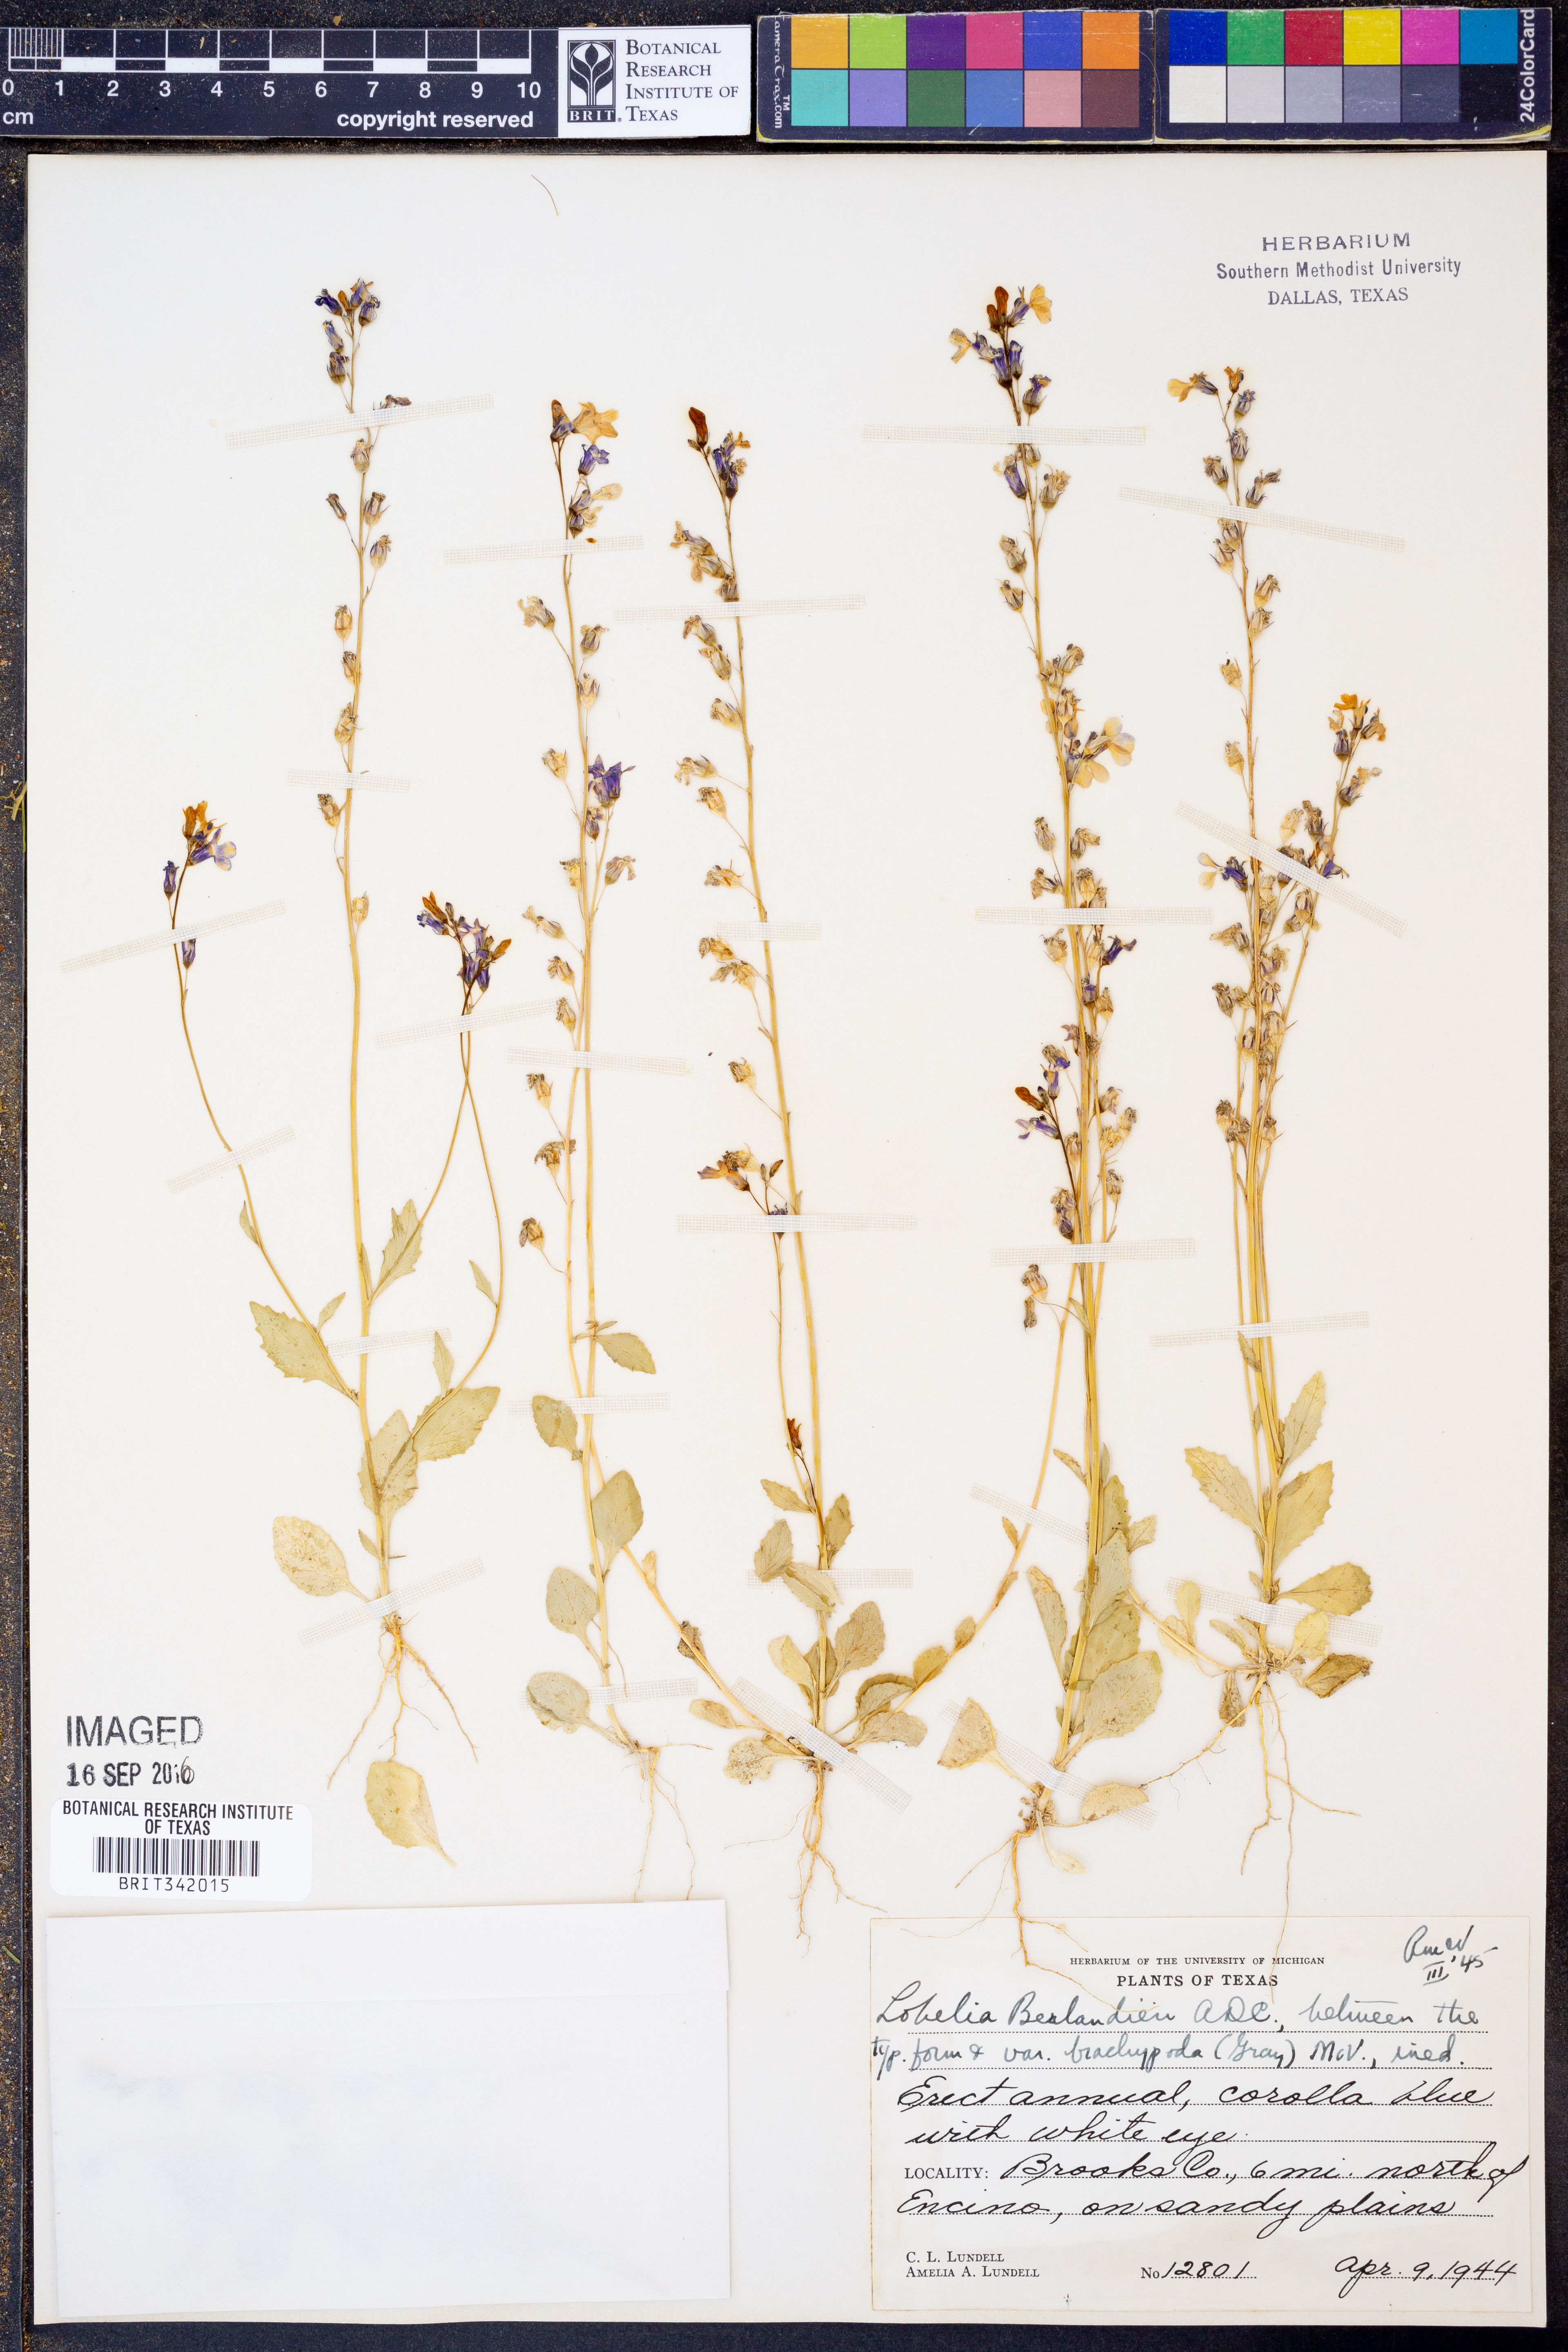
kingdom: Plantae
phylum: Tracheophyta
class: Magnoliopsida
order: Asterales
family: Campanulaceae
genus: Lobelia
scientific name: Lobelia berlandieri
